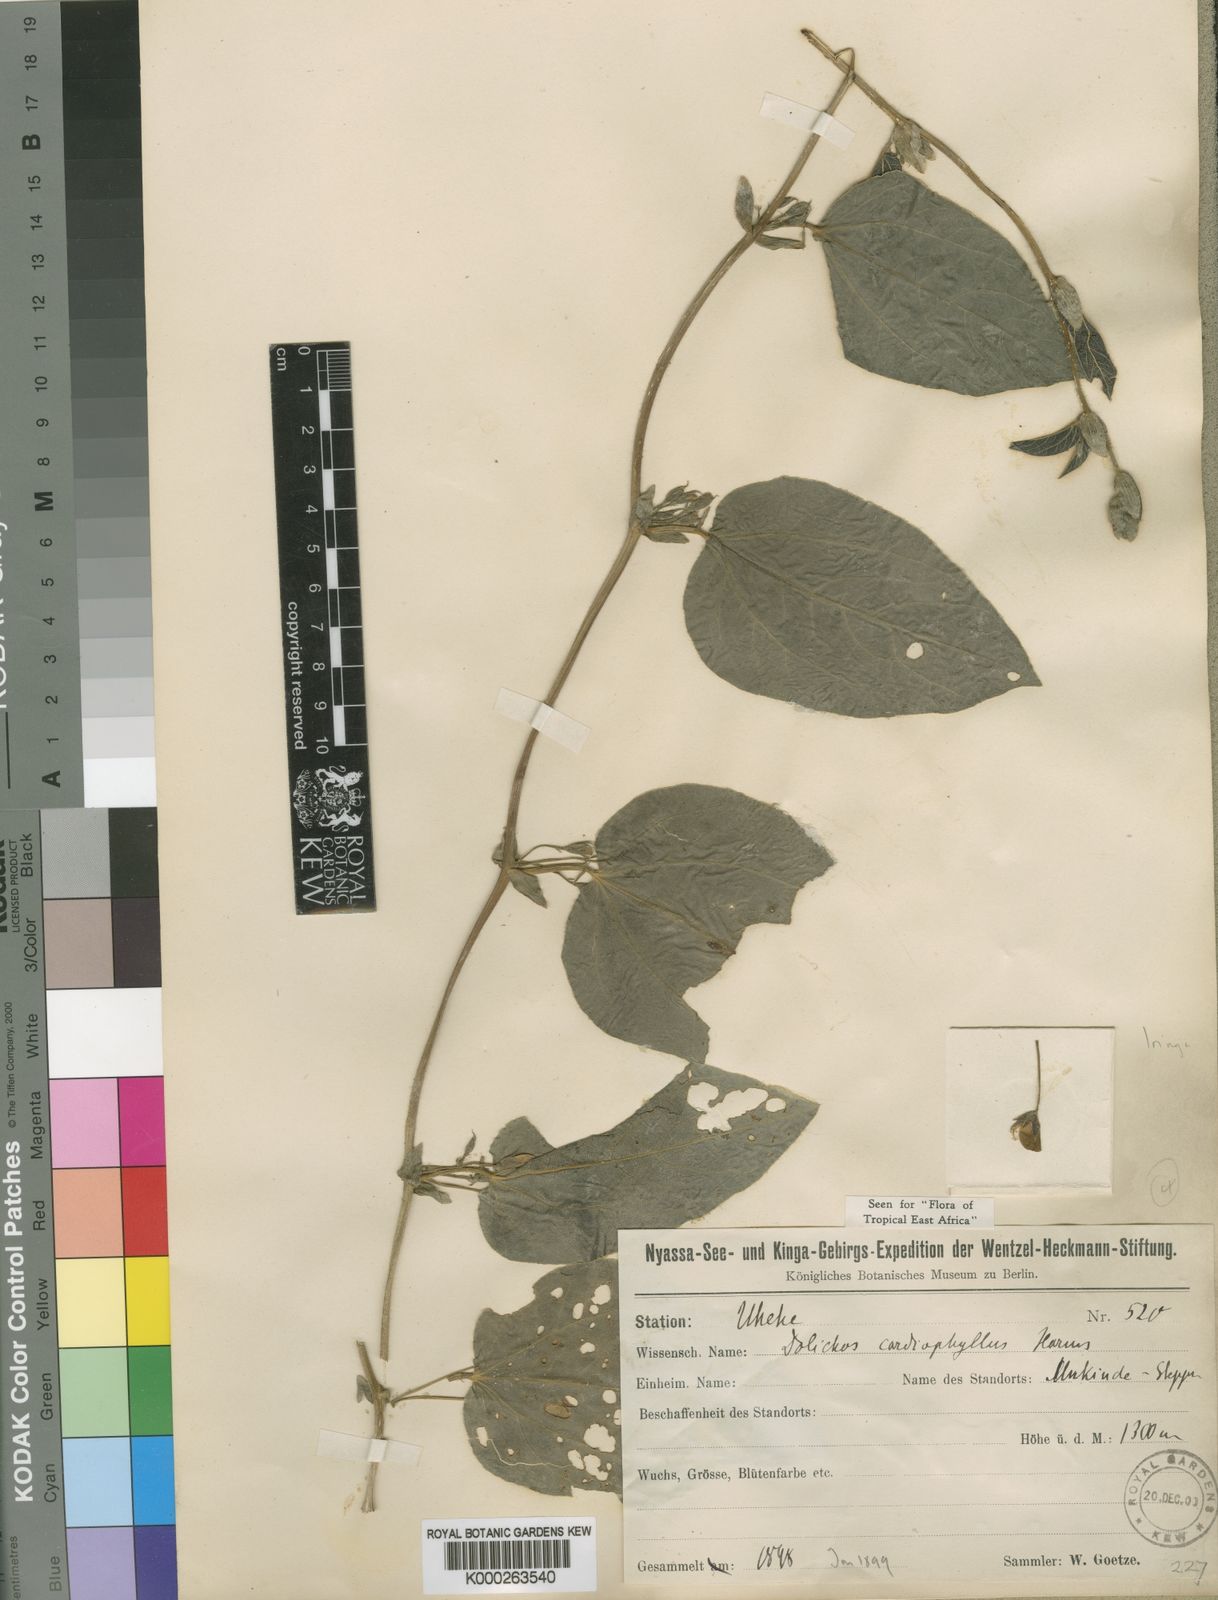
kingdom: Plantae
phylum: Tracheophyta
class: Magnoliopsida
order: Fabales
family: Fabaceae
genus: Dolichos
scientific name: Dolichos cardiophyllus
